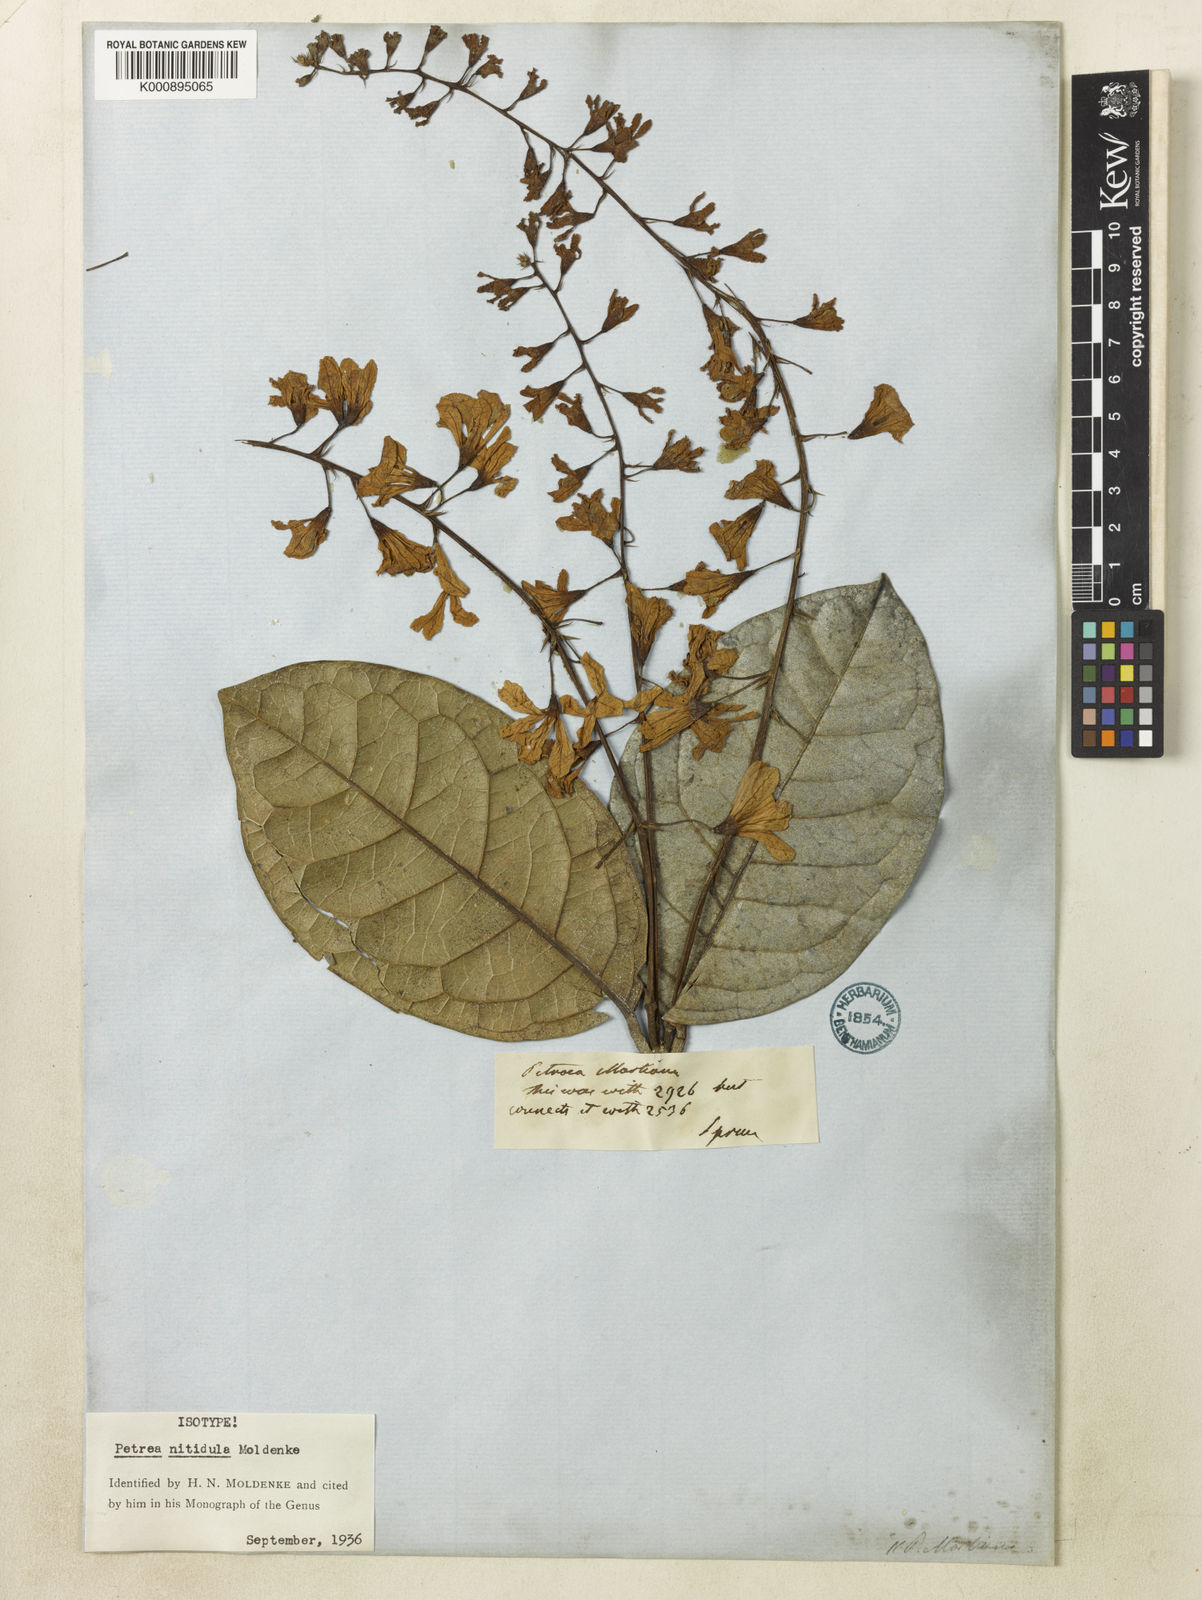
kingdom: Plantae
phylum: Tracheophyta
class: Magnoliopsida
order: Lamiales
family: Verbenaceae
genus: Petrea
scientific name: Petrea volubilis
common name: Queen's-wreath
